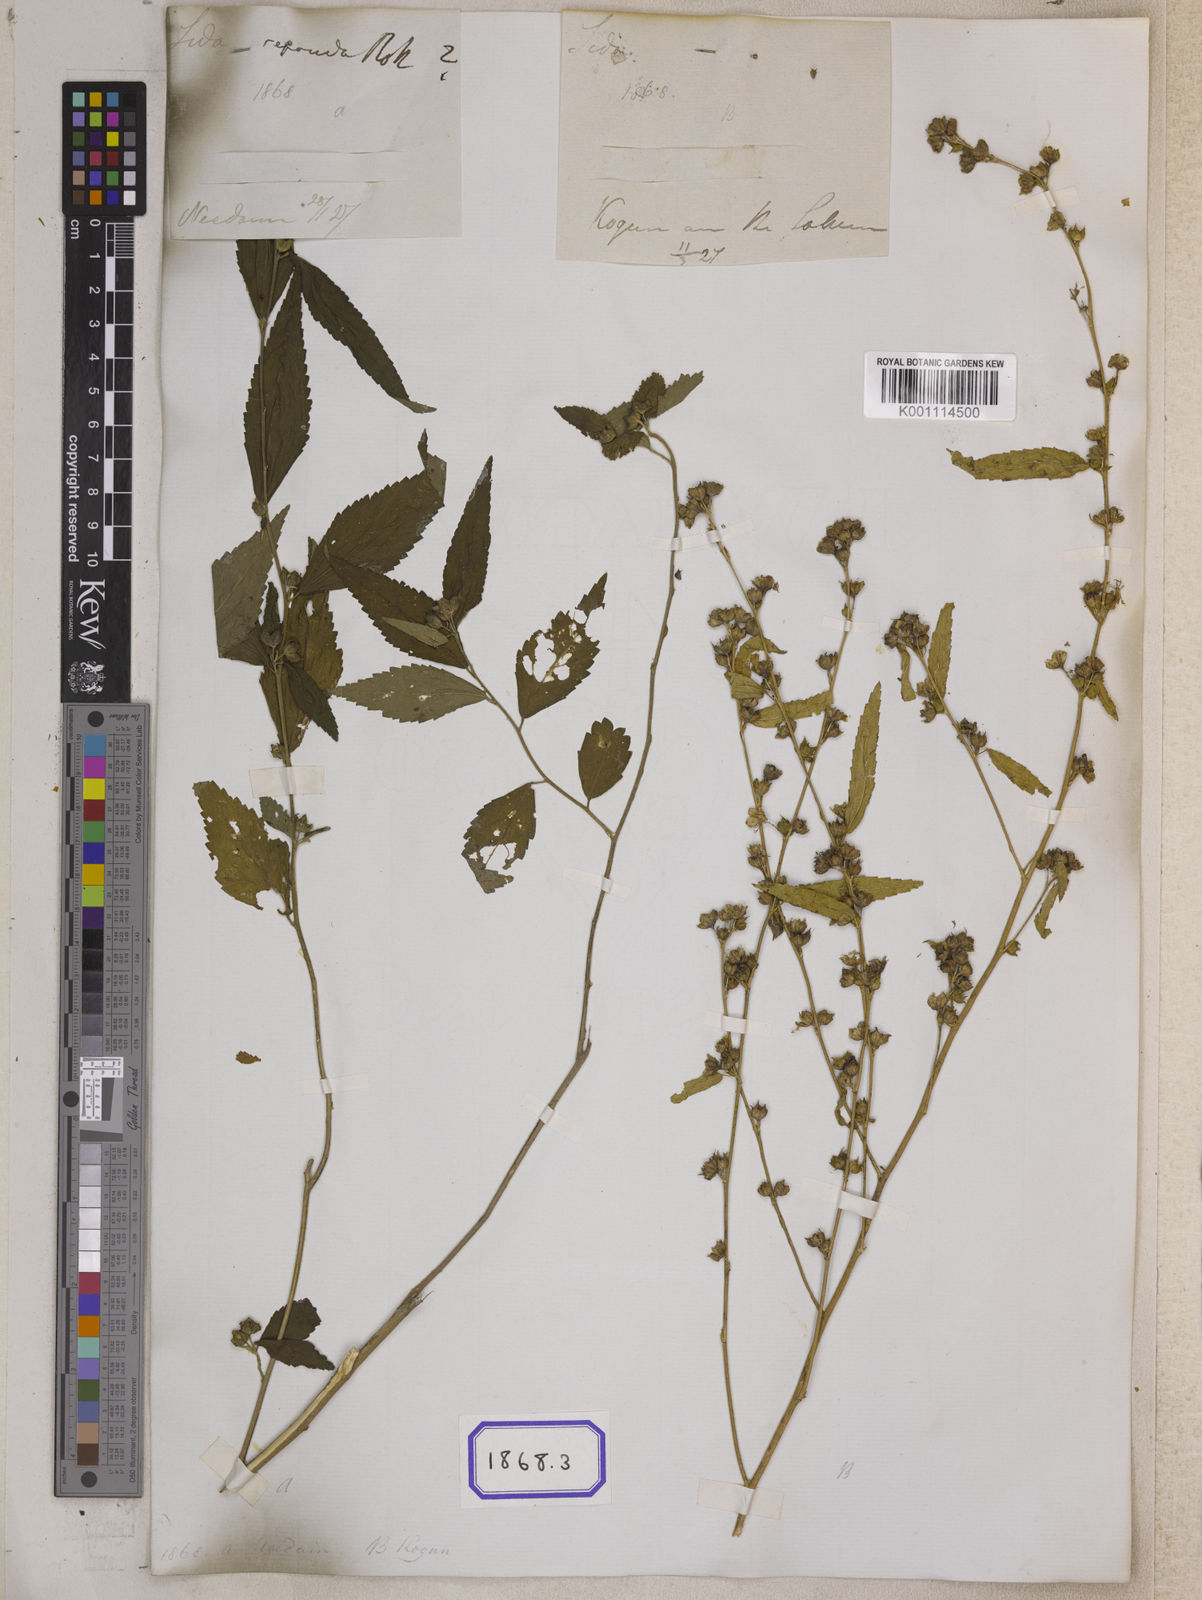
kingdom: Plantae
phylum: Tracheophyta
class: Magnoliopsida
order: Malvales
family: Malvaceae
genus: Sida
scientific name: Sida acuta
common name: Common wireweed
